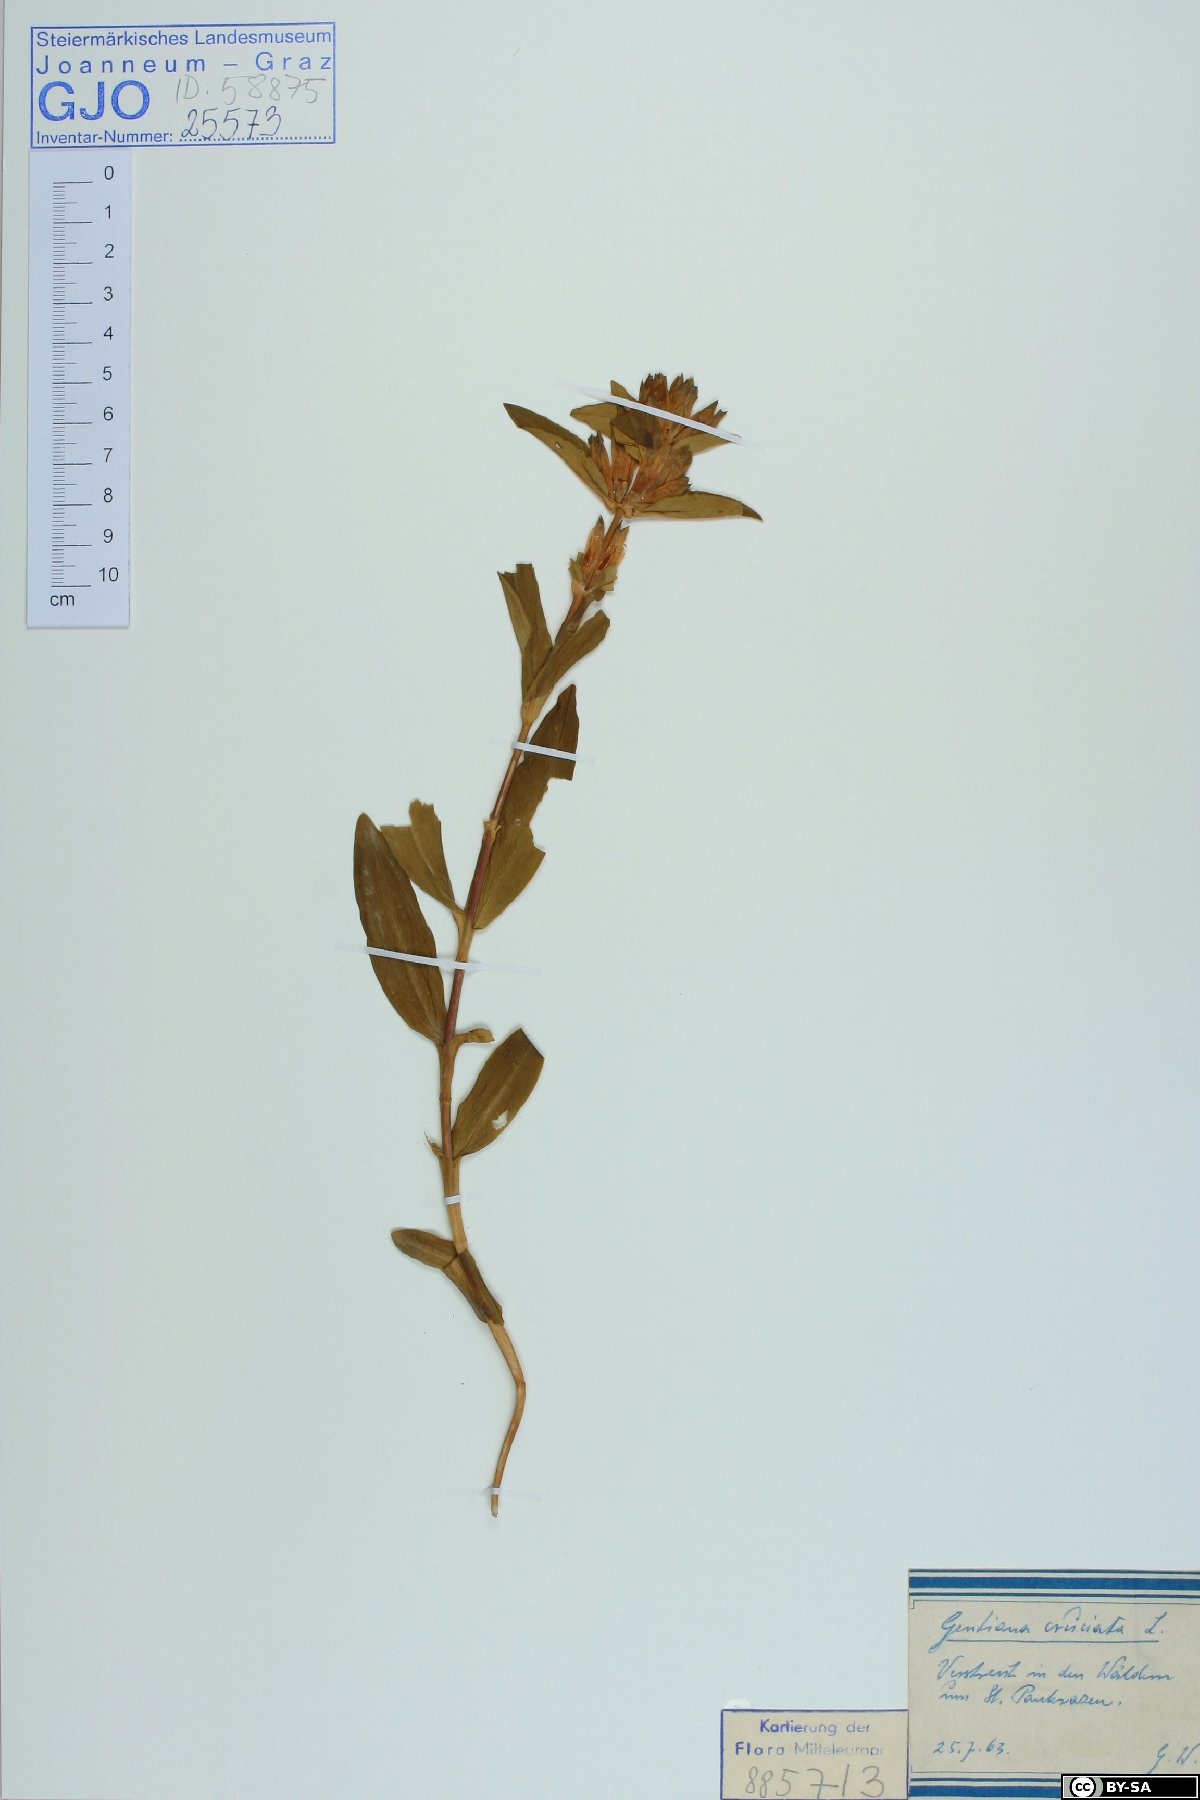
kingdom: Plantae
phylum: Tracheophyta
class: Magnoliopsida
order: Gentianales
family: Gentianaceae
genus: Gentiana
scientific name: Gentiana cruciata
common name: Cross gentian
